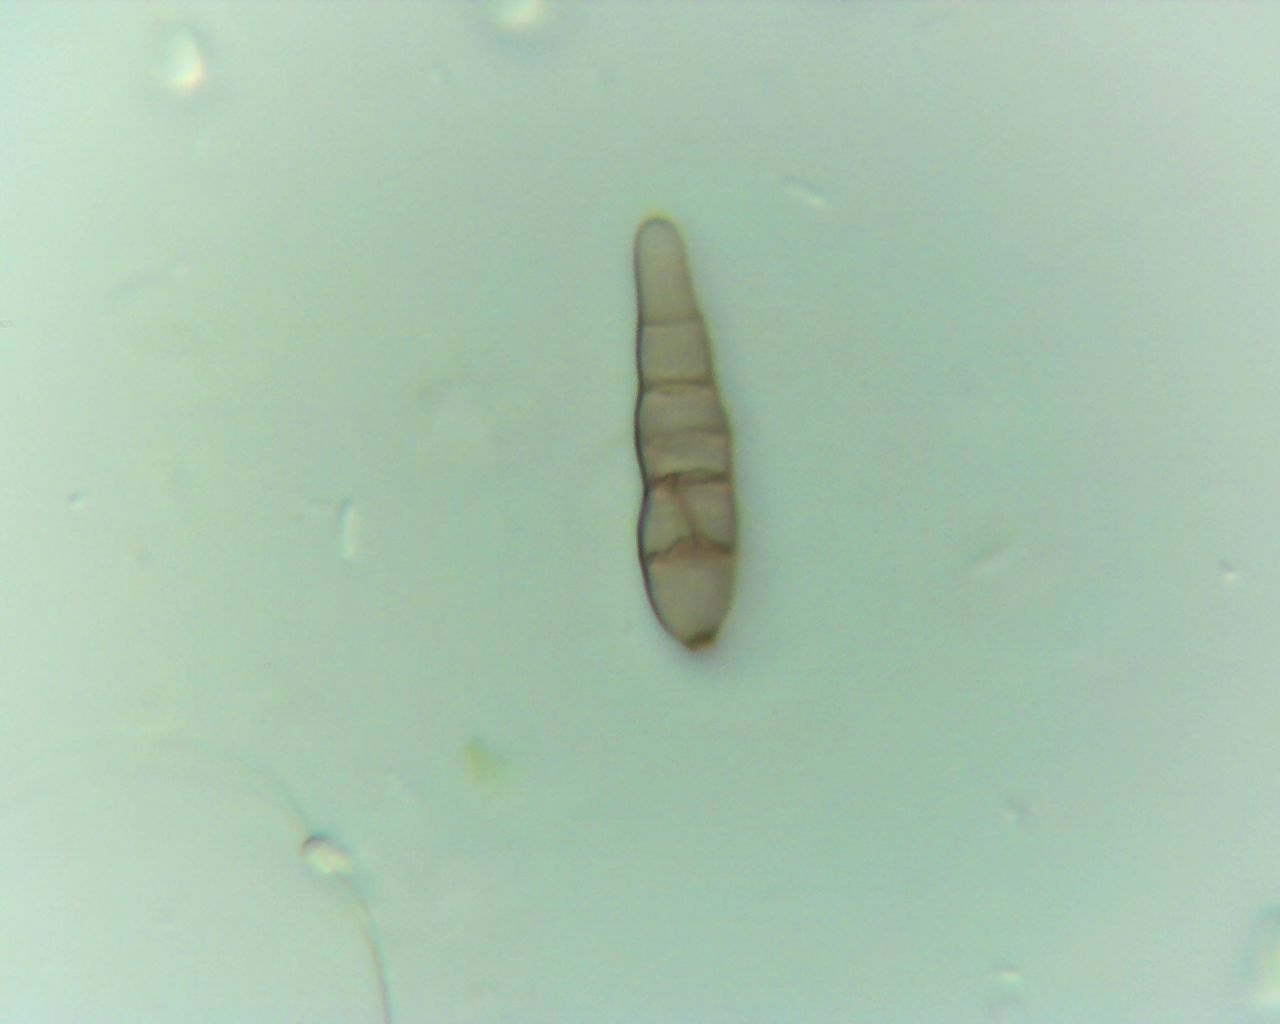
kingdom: Fungi
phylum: Ascomycota
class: Dothideomycetes
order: Pleosporales
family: Pleosporaceae
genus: Alternaria
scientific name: Alternaria
